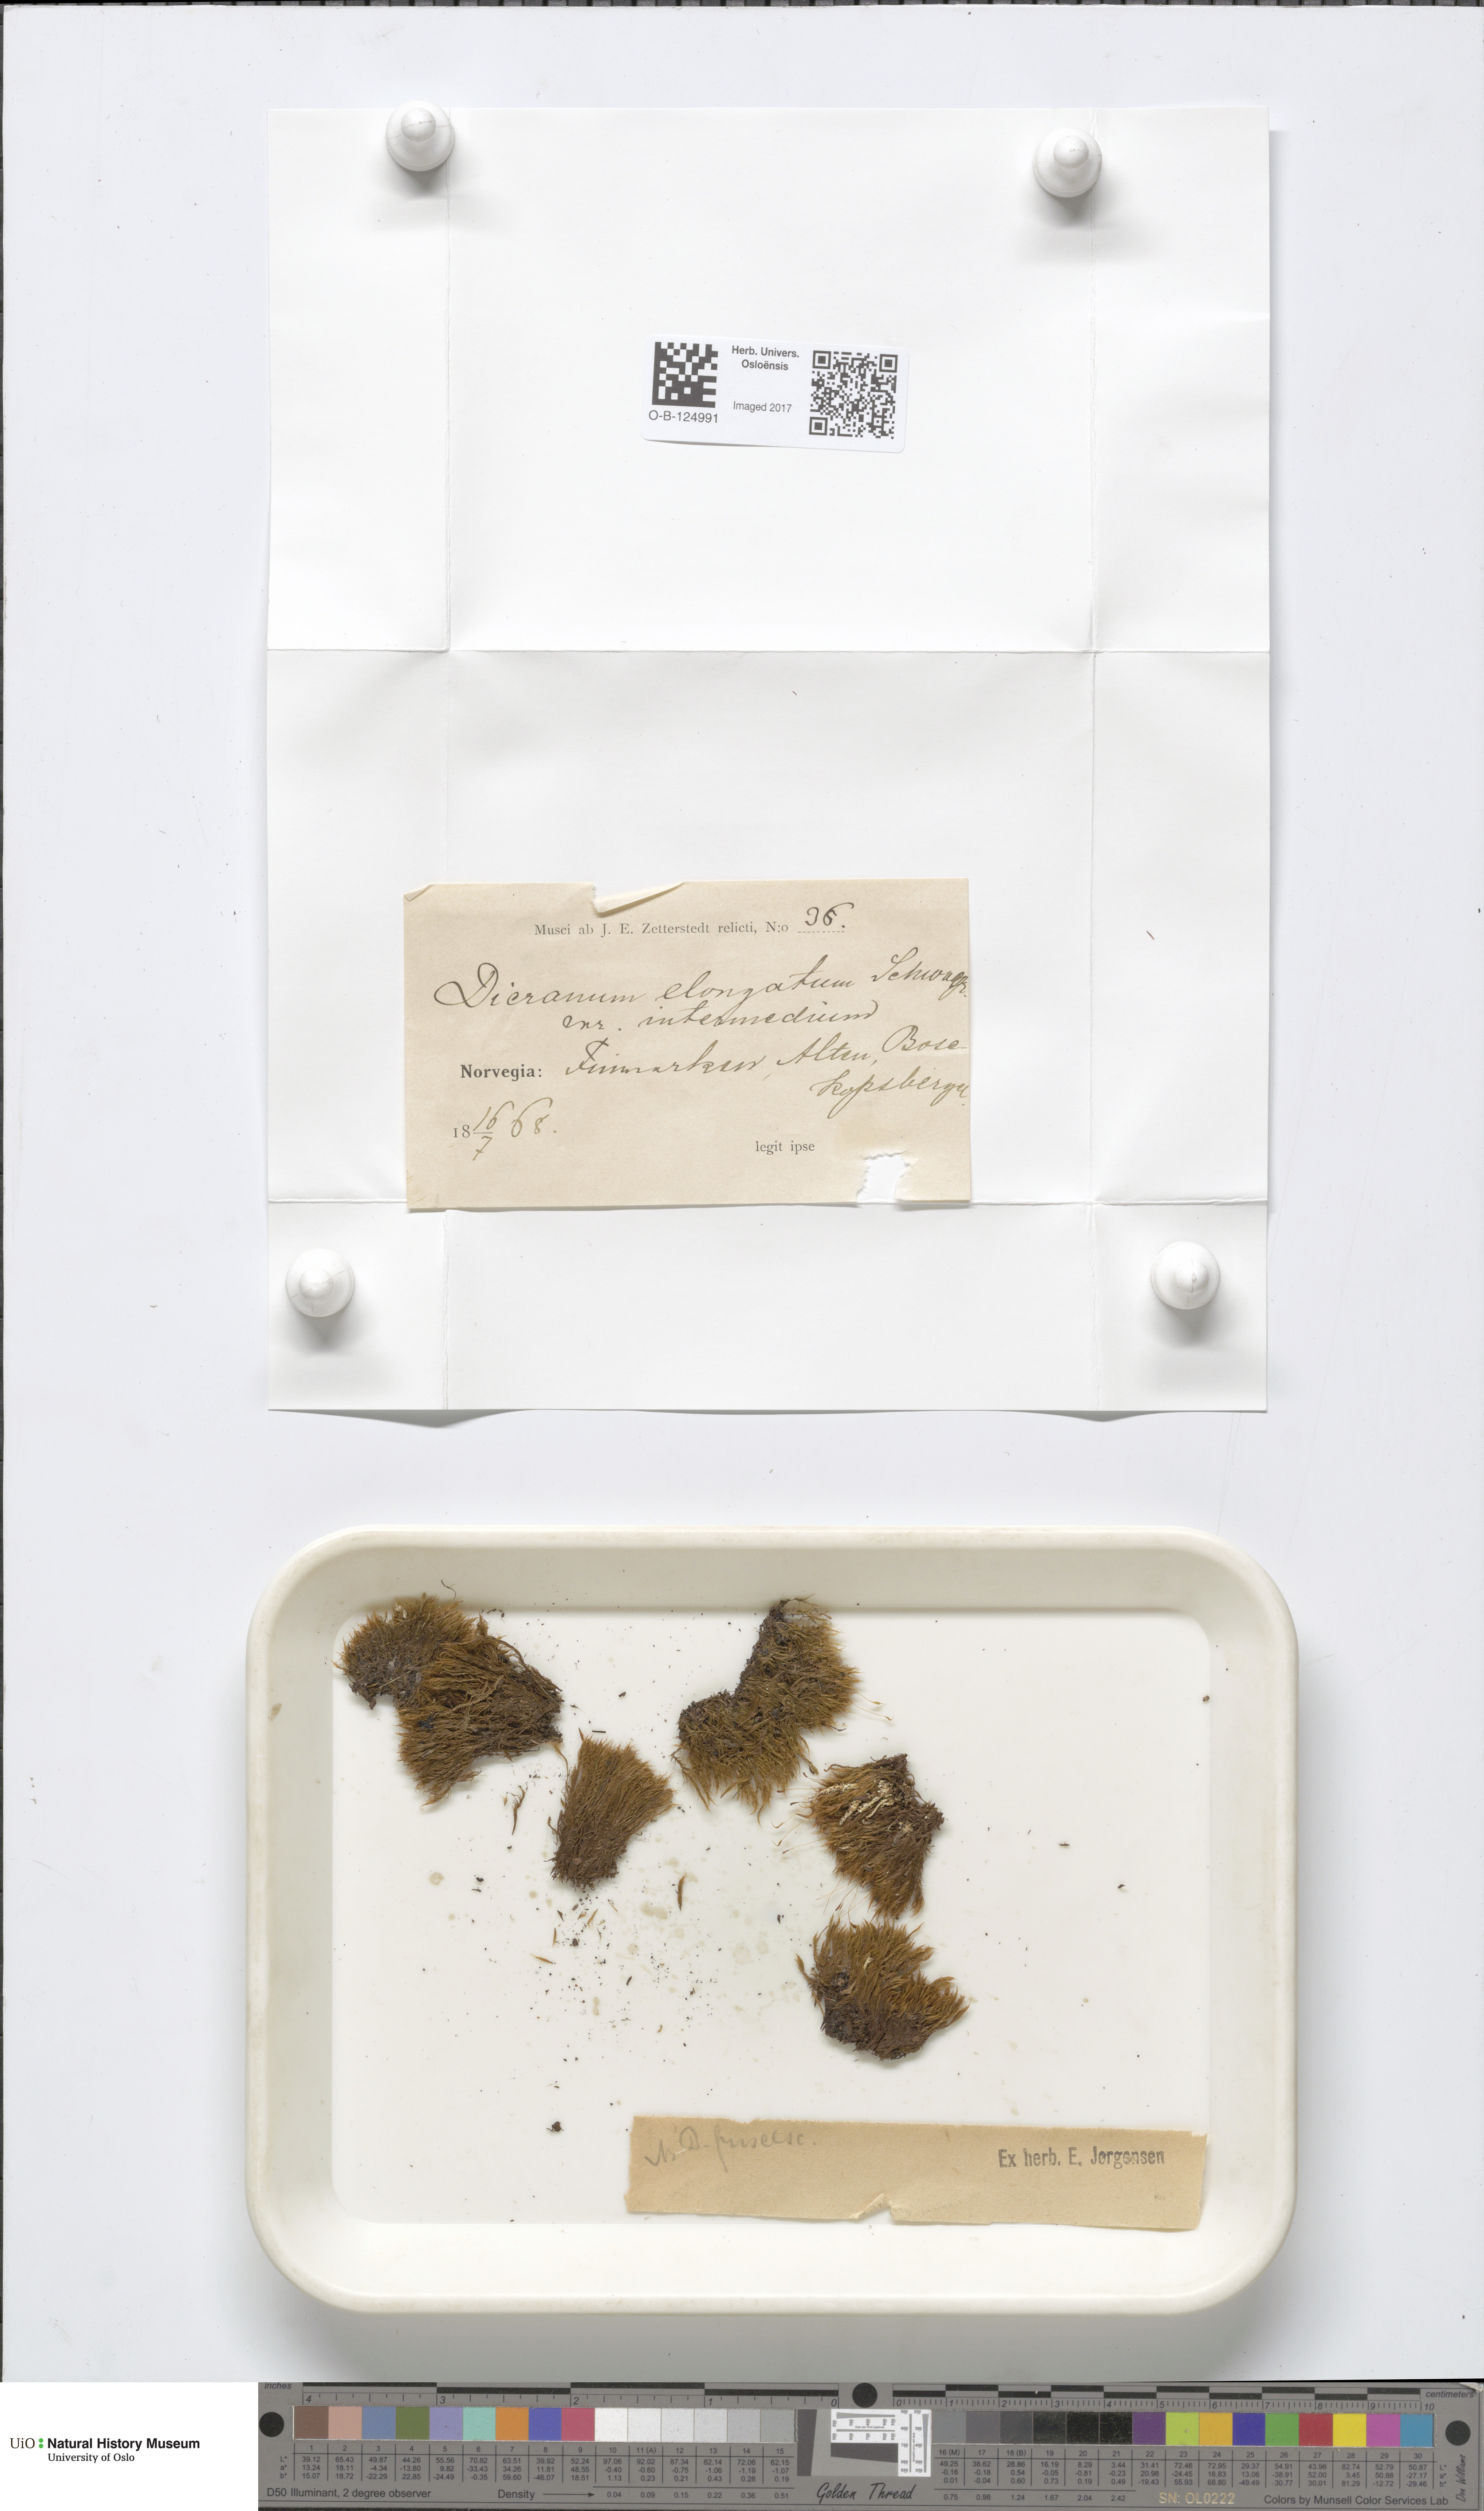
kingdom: Plantae
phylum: Bryophyta
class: Bryopsida
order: Dicranales
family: Dicranaceae
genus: Dicranum
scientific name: Dicranum elongatum
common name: Long-forked broom moss
